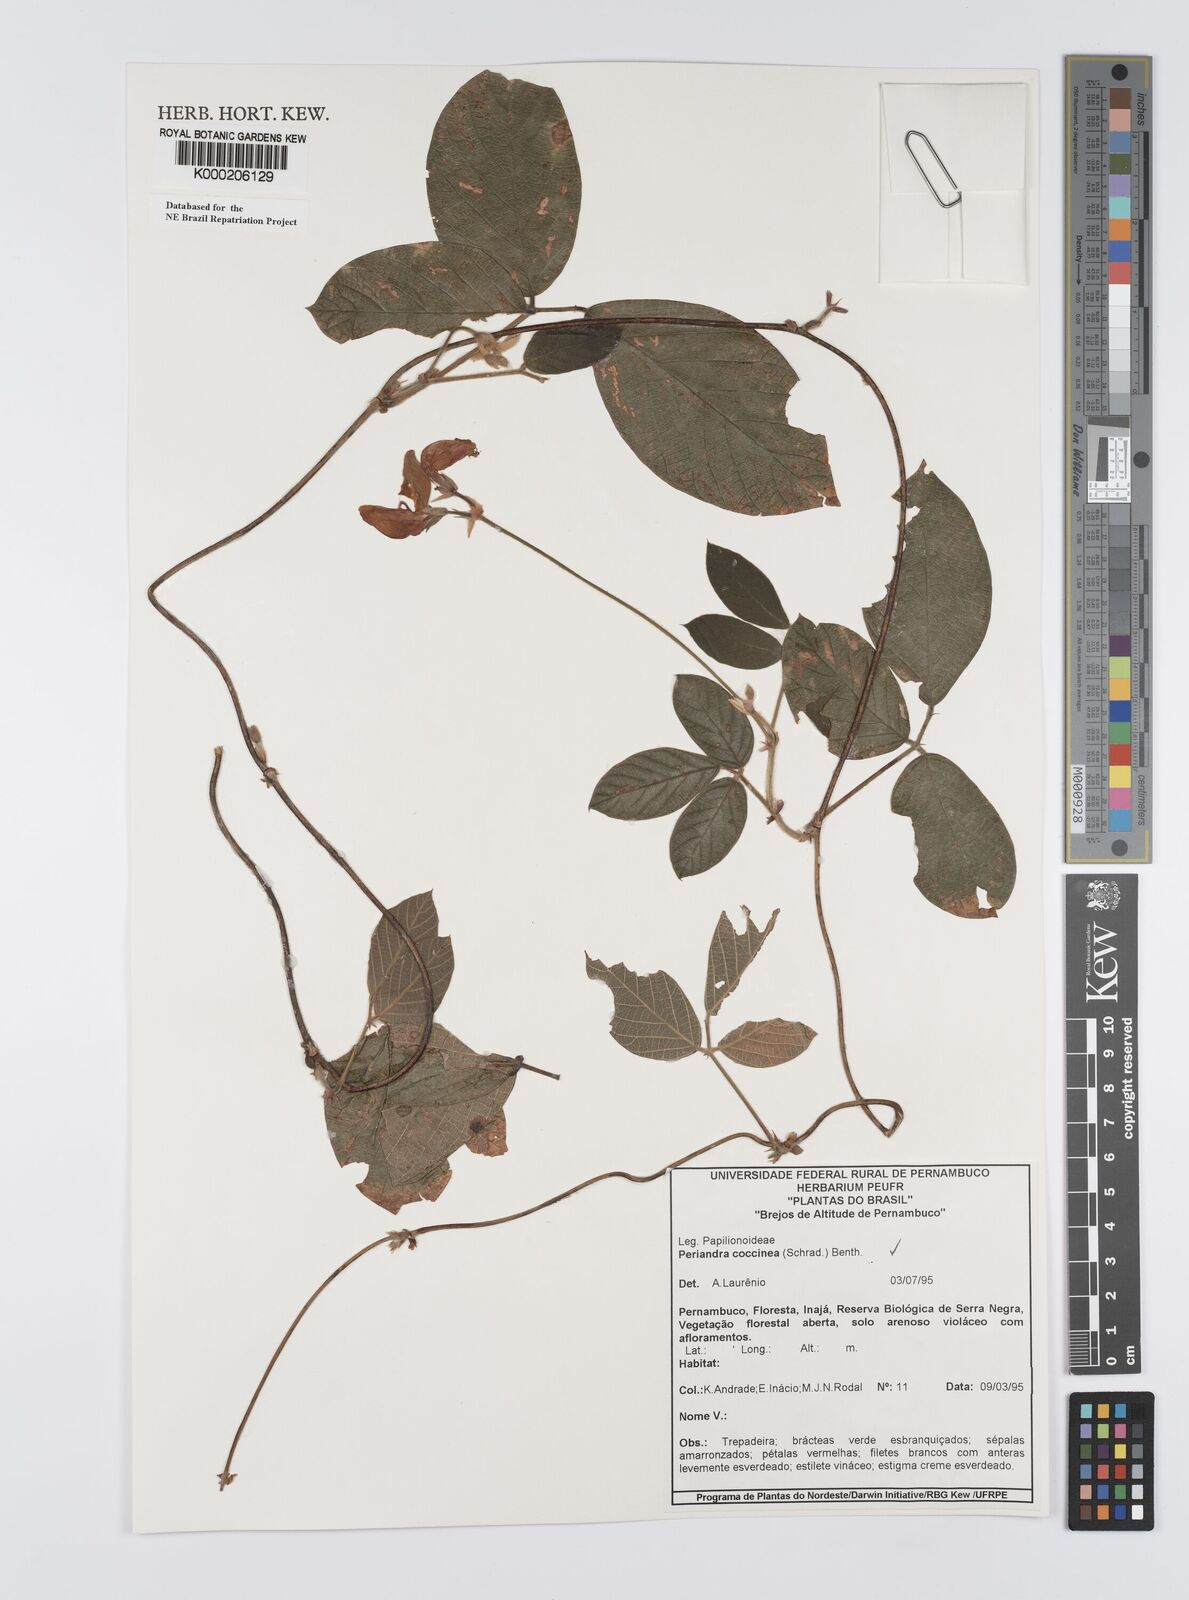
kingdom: Plantae
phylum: Tracheophyta
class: Magnoliopsida
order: Fabales
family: Fabaceae
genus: Periandra
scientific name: Periandra coccinea
